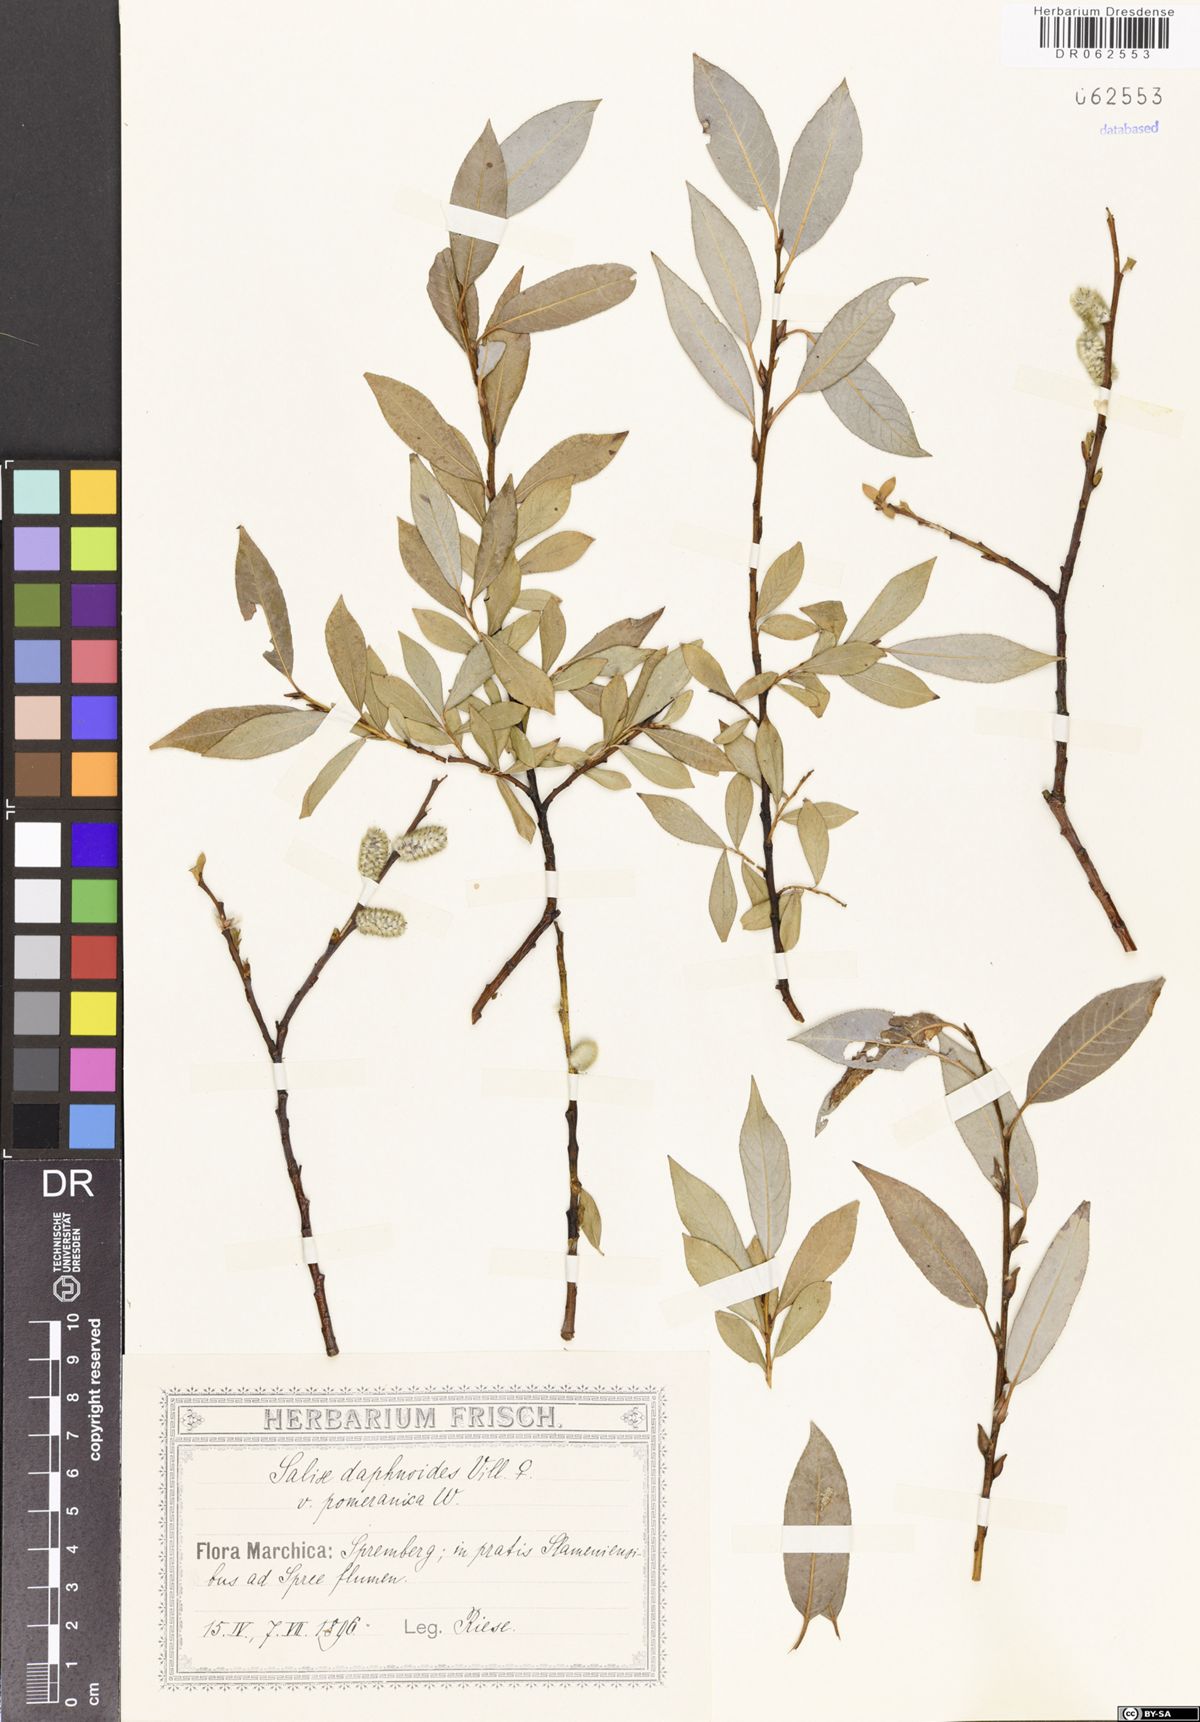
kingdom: Plantae
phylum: Tracheophyta
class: Magnoliopsida
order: Malpighiales
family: Salicaceae
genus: Salix
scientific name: Salix daphnoides
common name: European violet-willow
